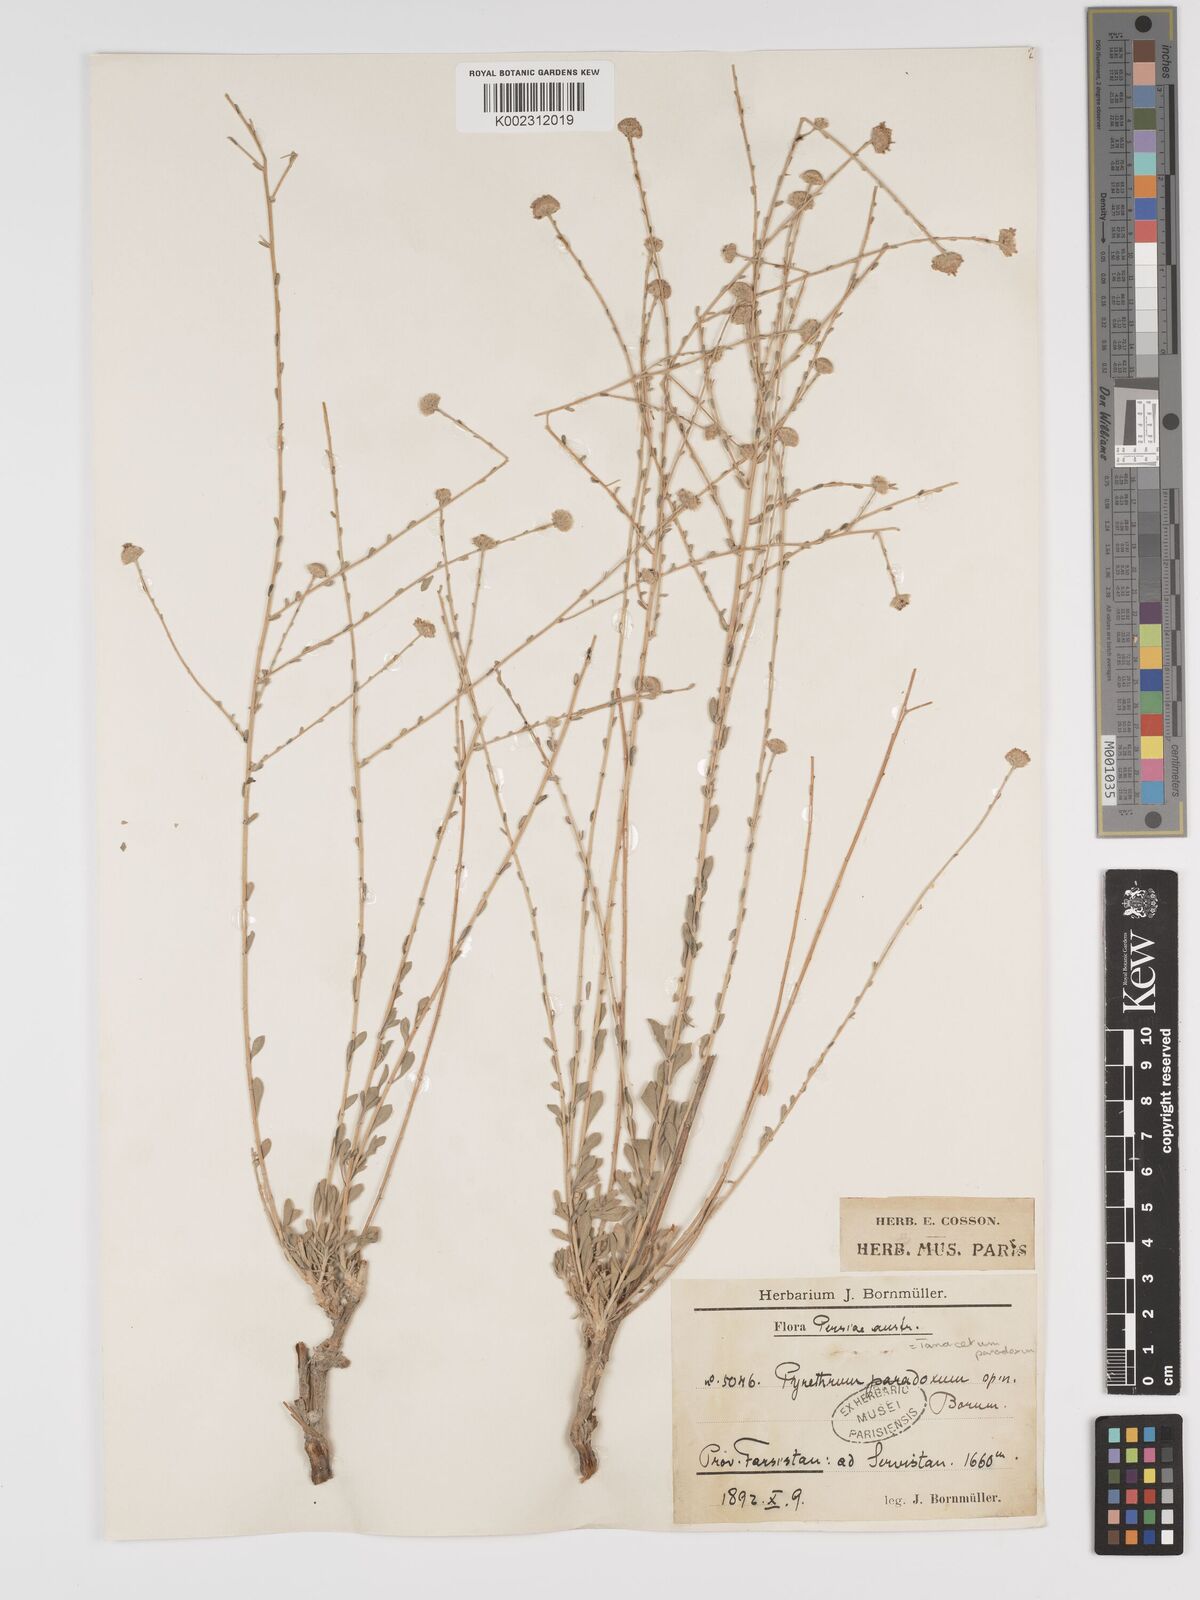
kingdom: Plantae
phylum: Tracheophyta
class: Magnoliopsida
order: Asterales
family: Asteraceae
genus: Tanacetum
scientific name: Tanacetum paradoxum
